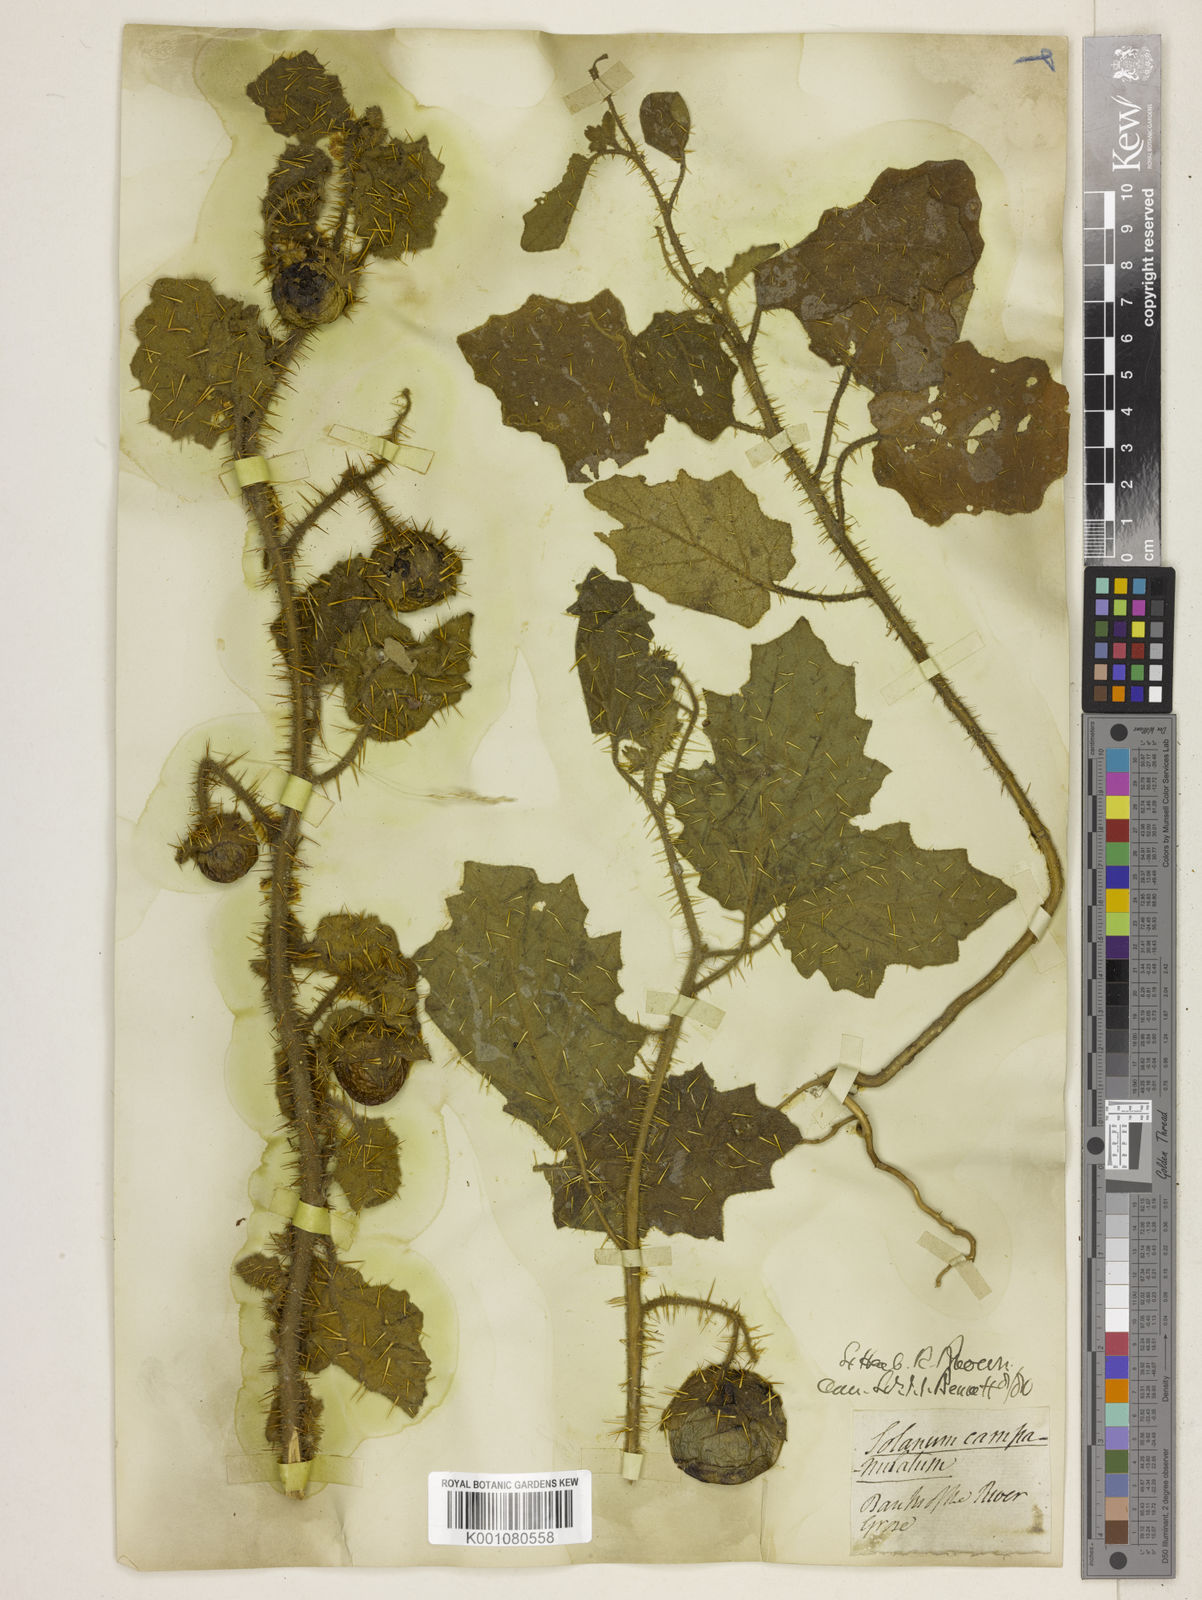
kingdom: Plantae
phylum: Tracheophyta
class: Magnoliopsida
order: Solanales
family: Solanaceae
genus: Solanum
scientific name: Solanum campanulatum
